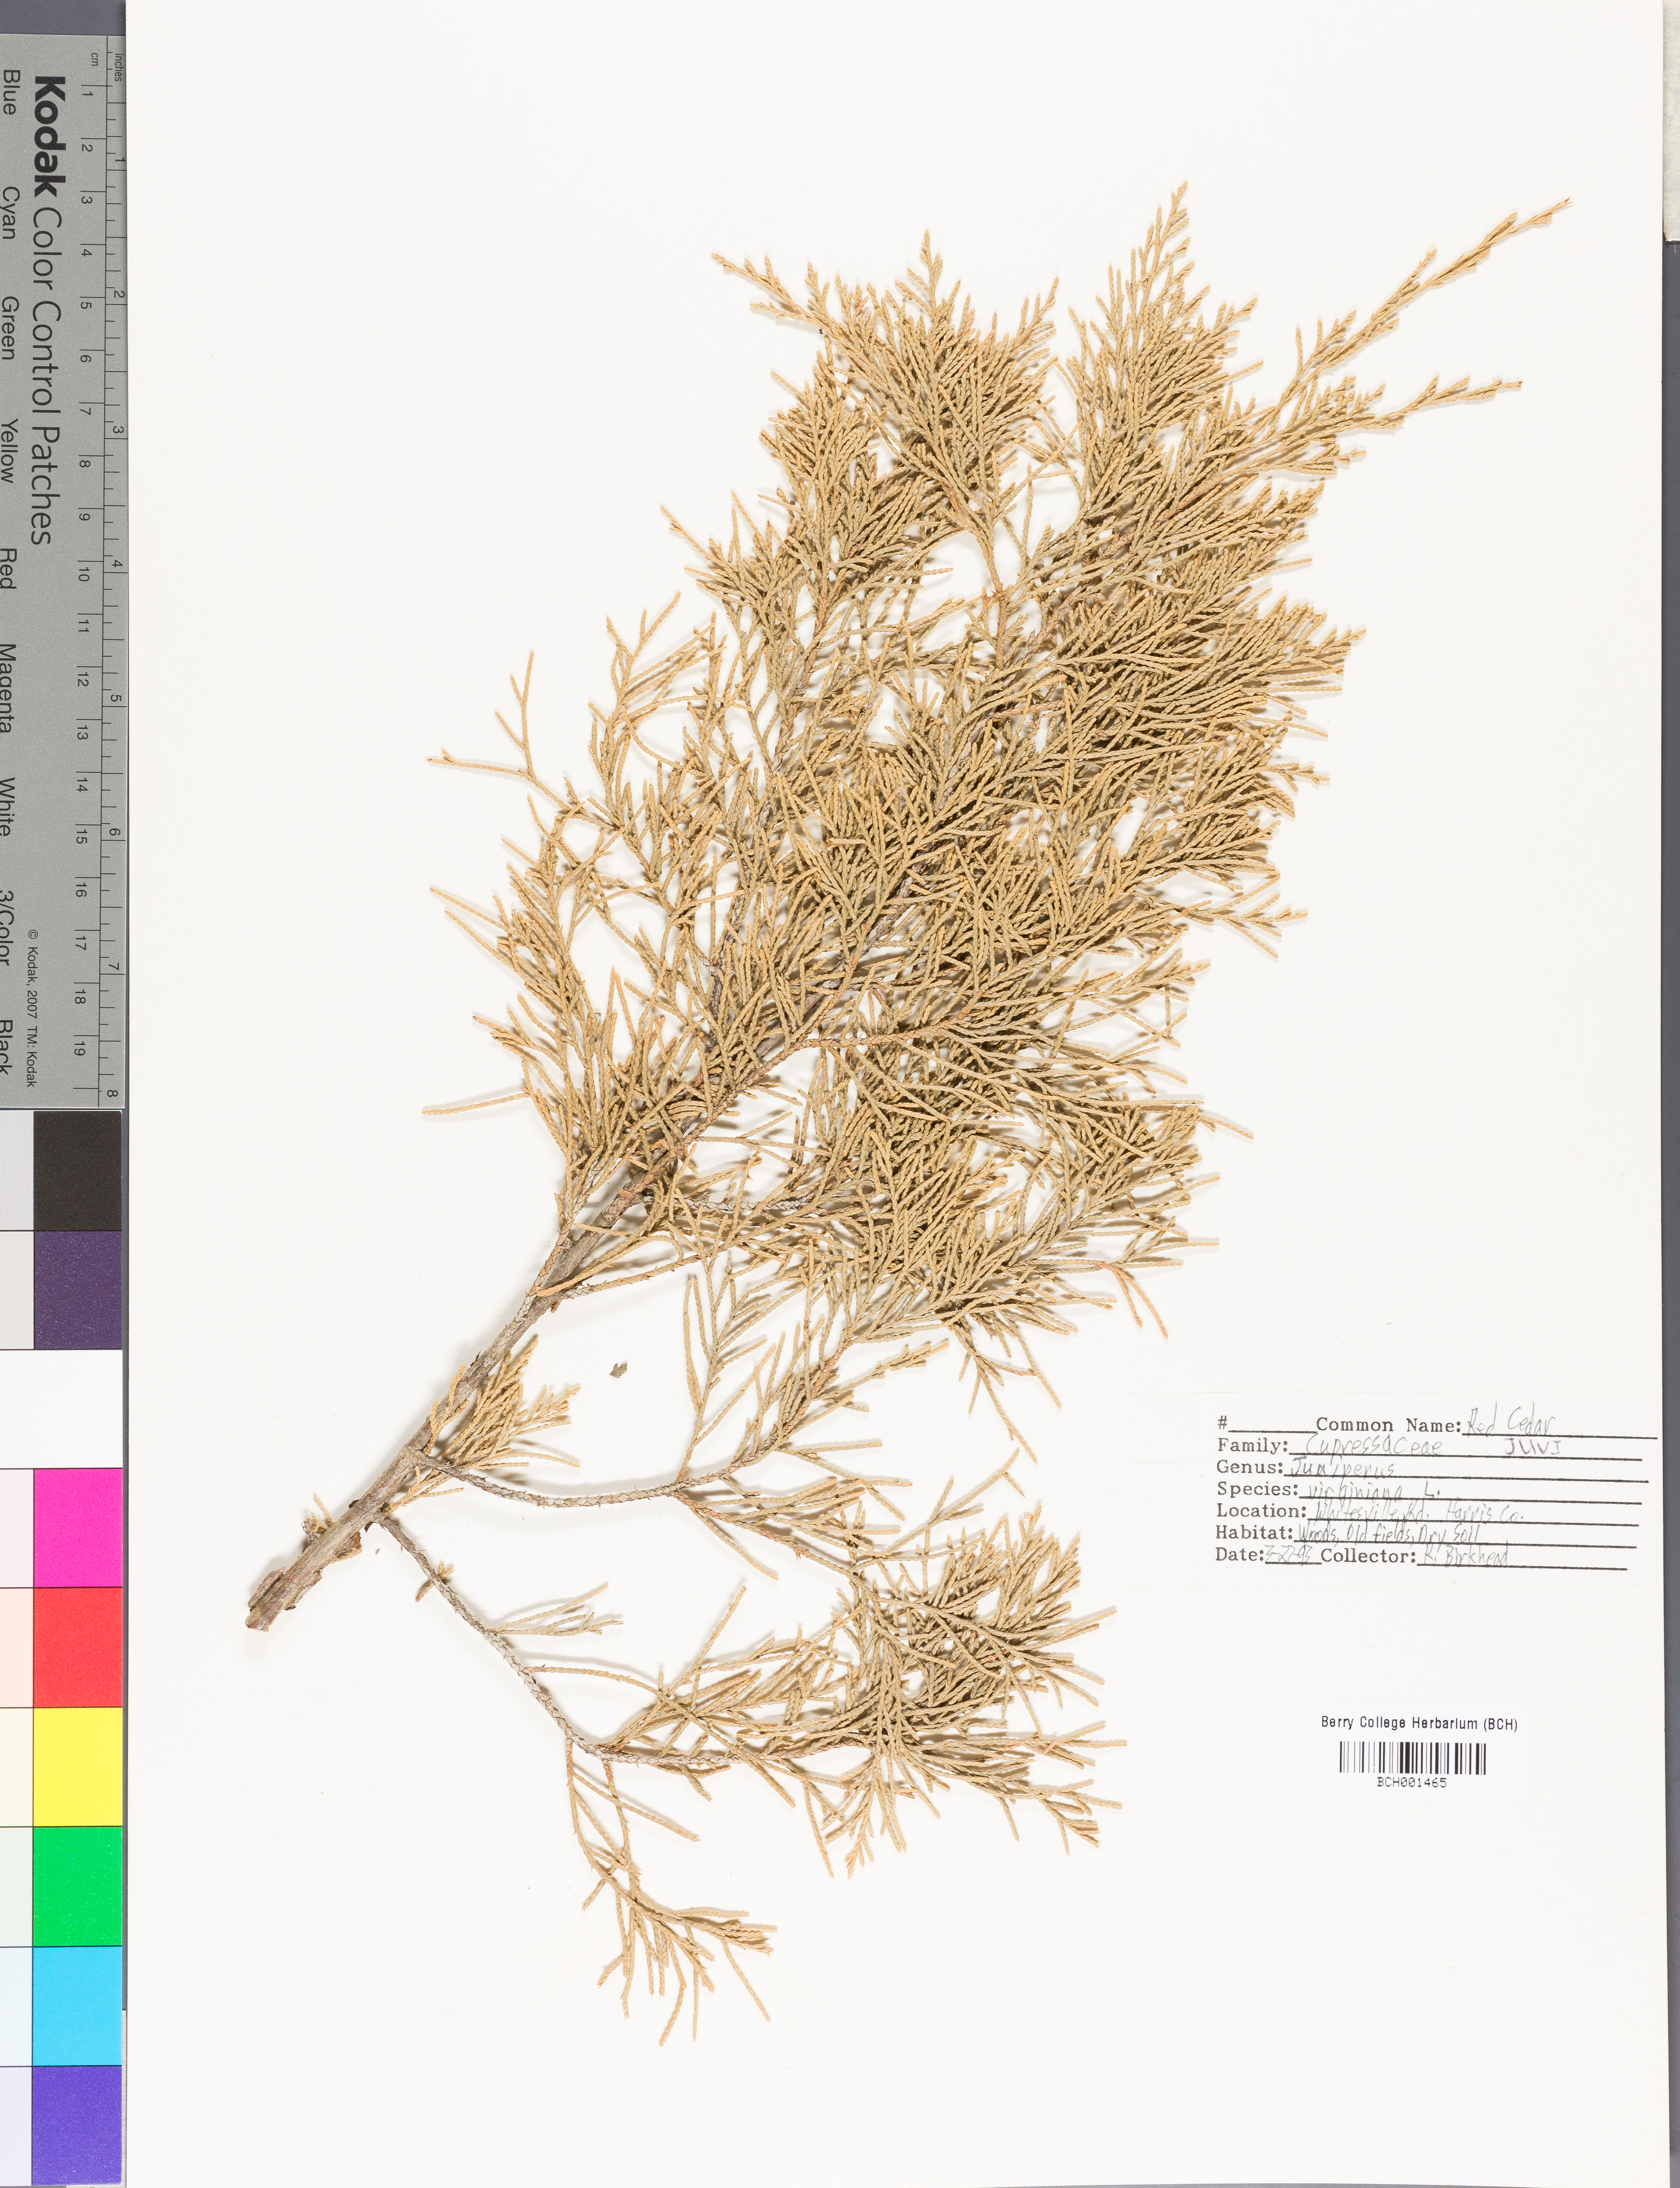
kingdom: Plantae
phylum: Tracheophyta
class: Pinopsida
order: Pinales
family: Cupressaceae
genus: Juniperus
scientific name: Juniperus virginiana
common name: Red juniper
